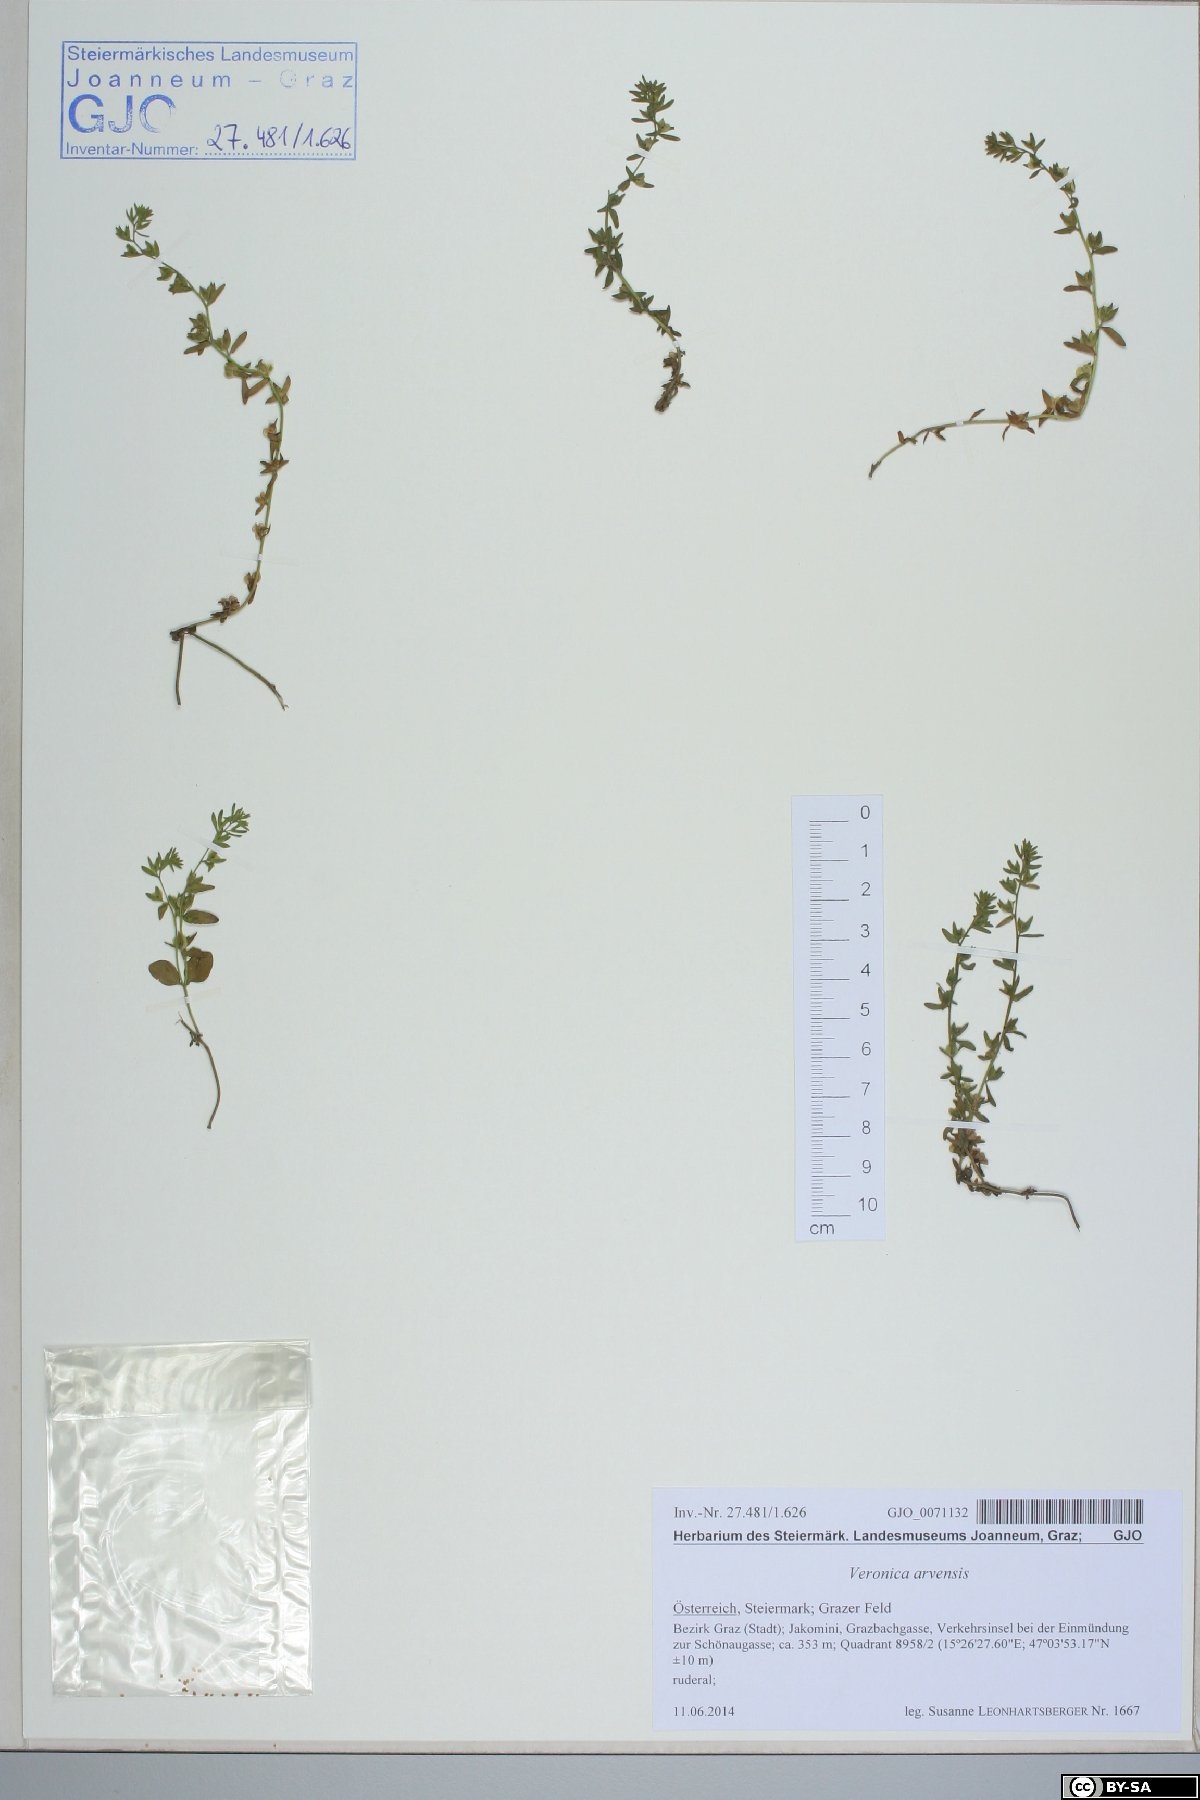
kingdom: Plantae
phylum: Tracheophyta
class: Magnoliopsida
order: Lamiales
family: Plantaginaceae
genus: Veronica
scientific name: Veronica arvensis
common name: Corn speedwell
